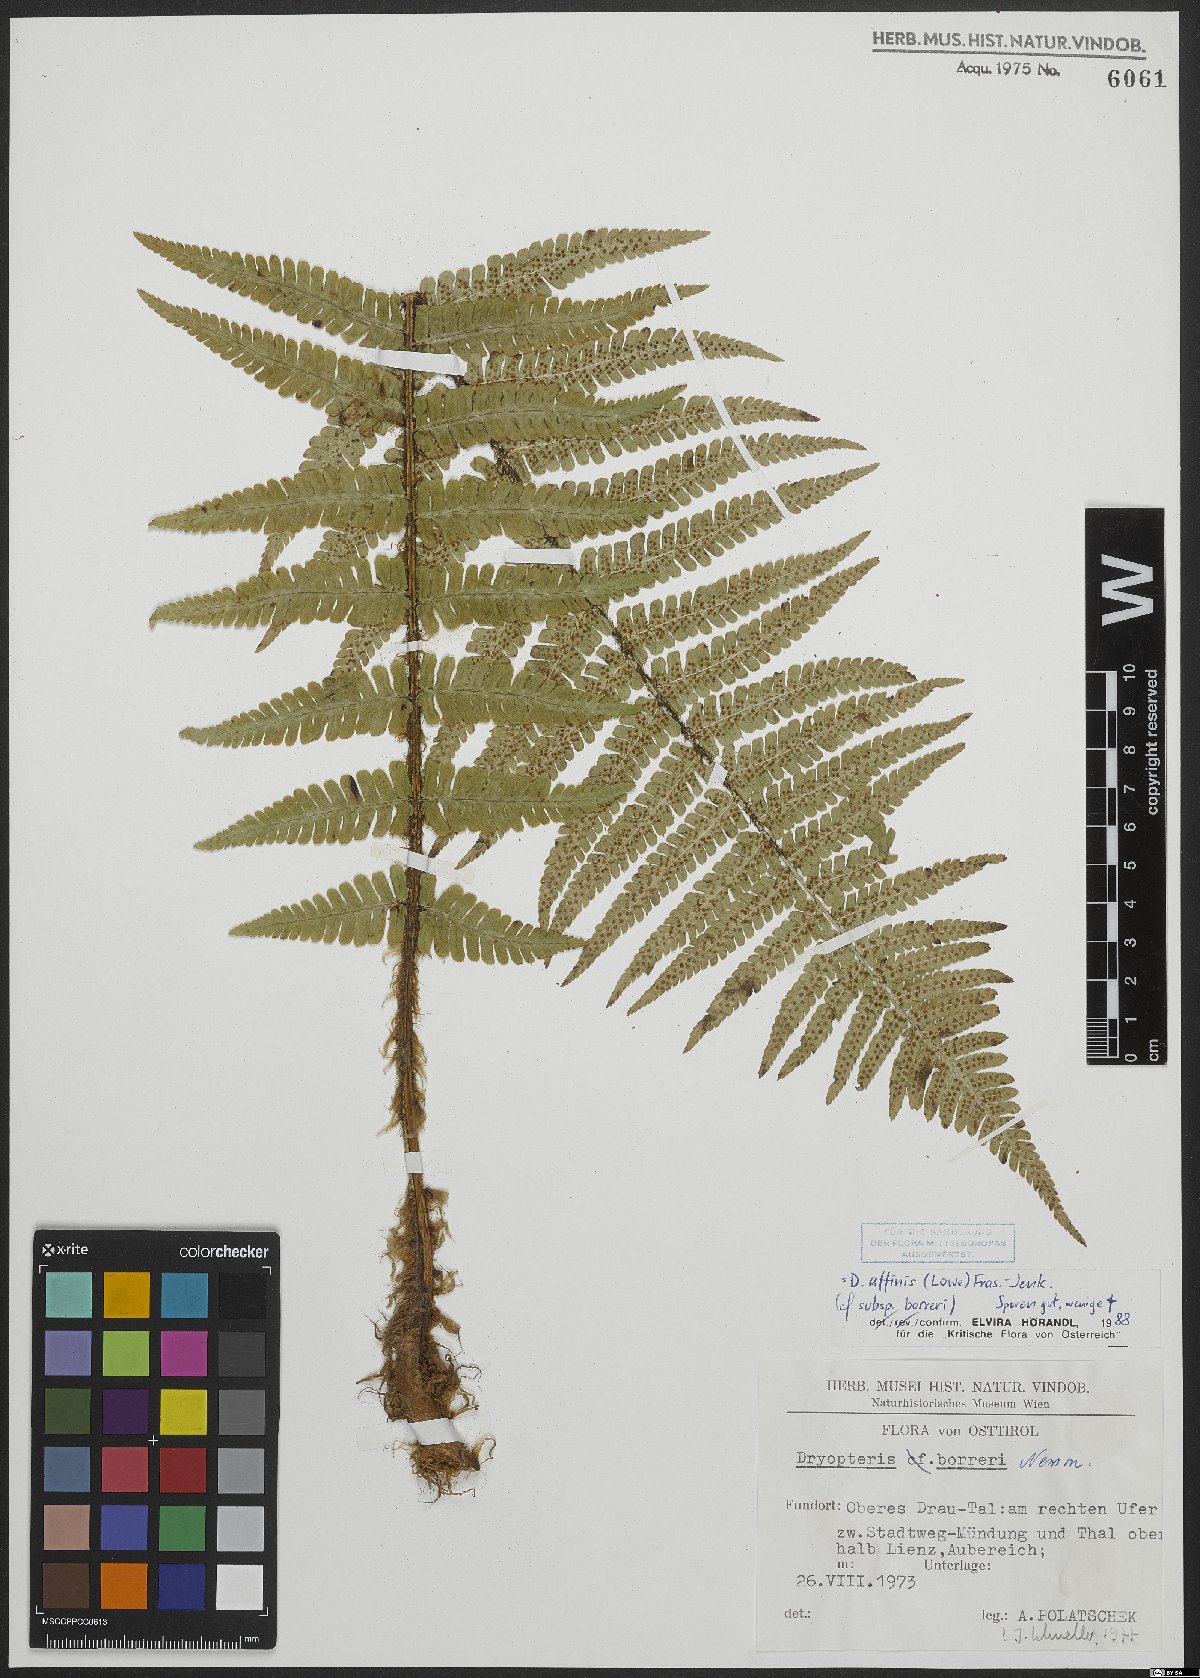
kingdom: Plantae
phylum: Tracheophyta
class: Polypodiopsida
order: Polypodiales
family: Dryopteridaceae
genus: Dryopteris
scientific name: Dryopteris borreri
